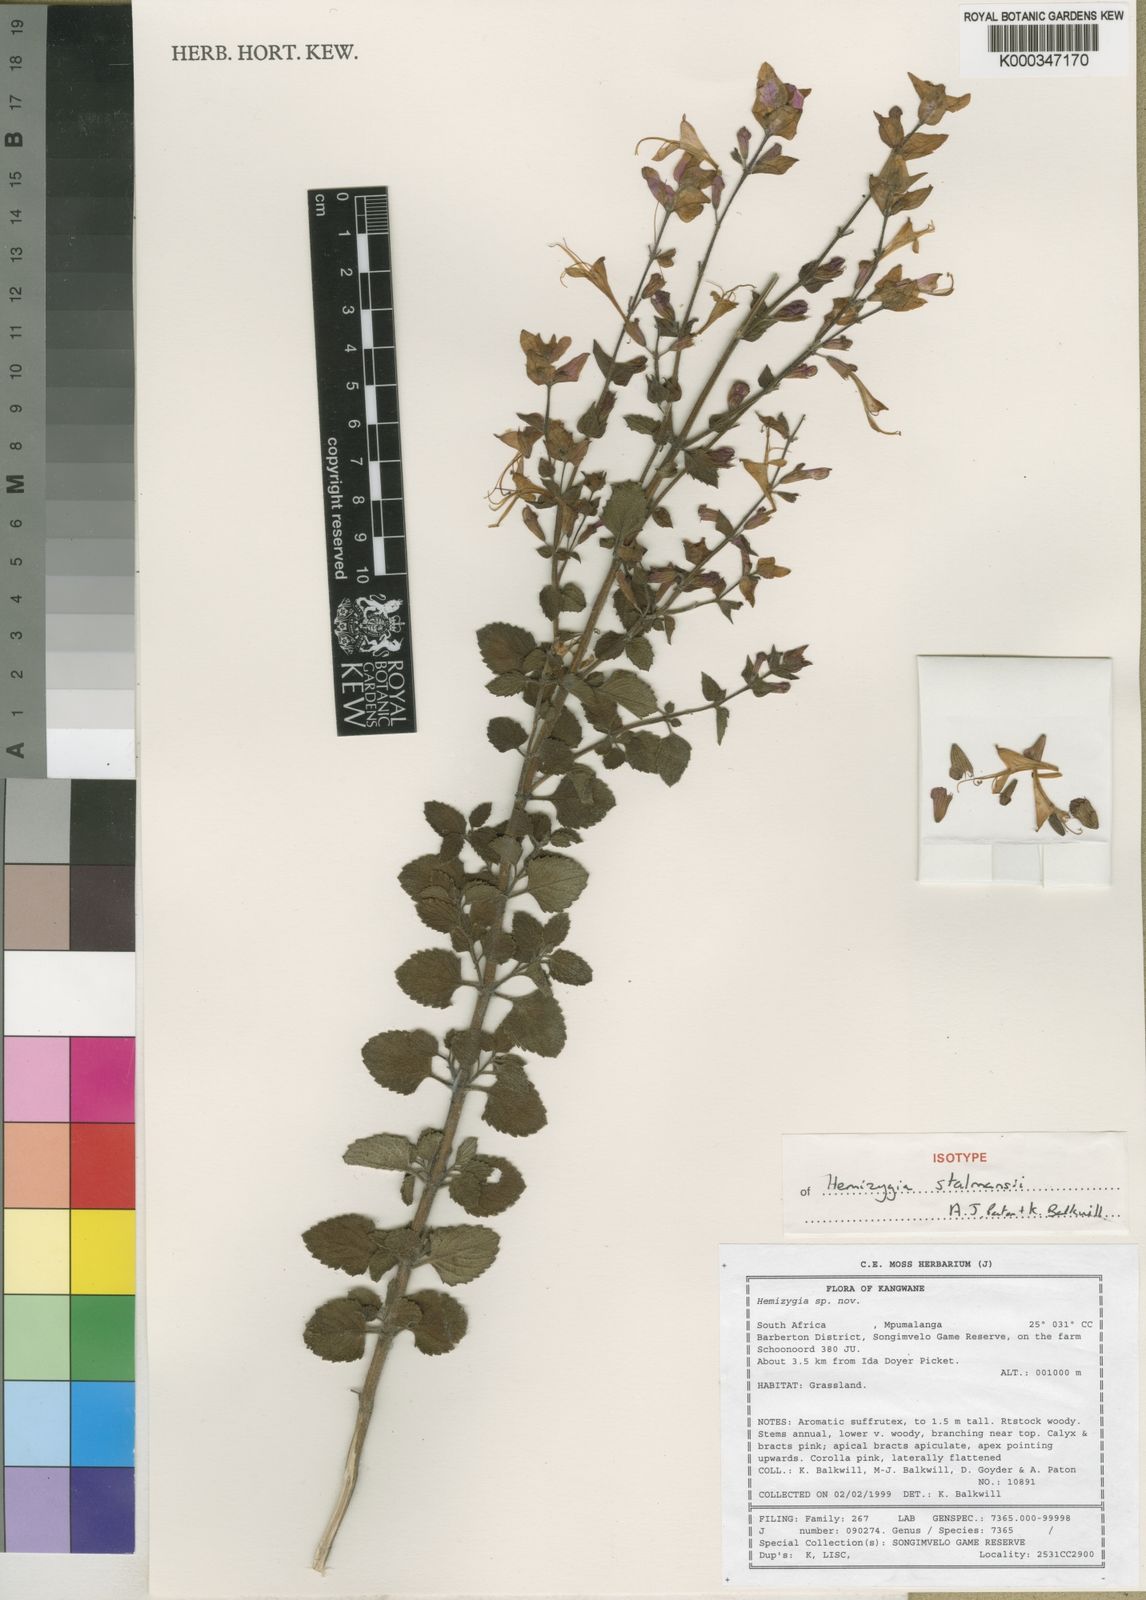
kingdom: Plantae
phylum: Tracheophyta
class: Magnoliopsida
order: Lamiales
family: Lamiaceae
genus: Syncolostemon
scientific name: Syncolostemon stalmansii
